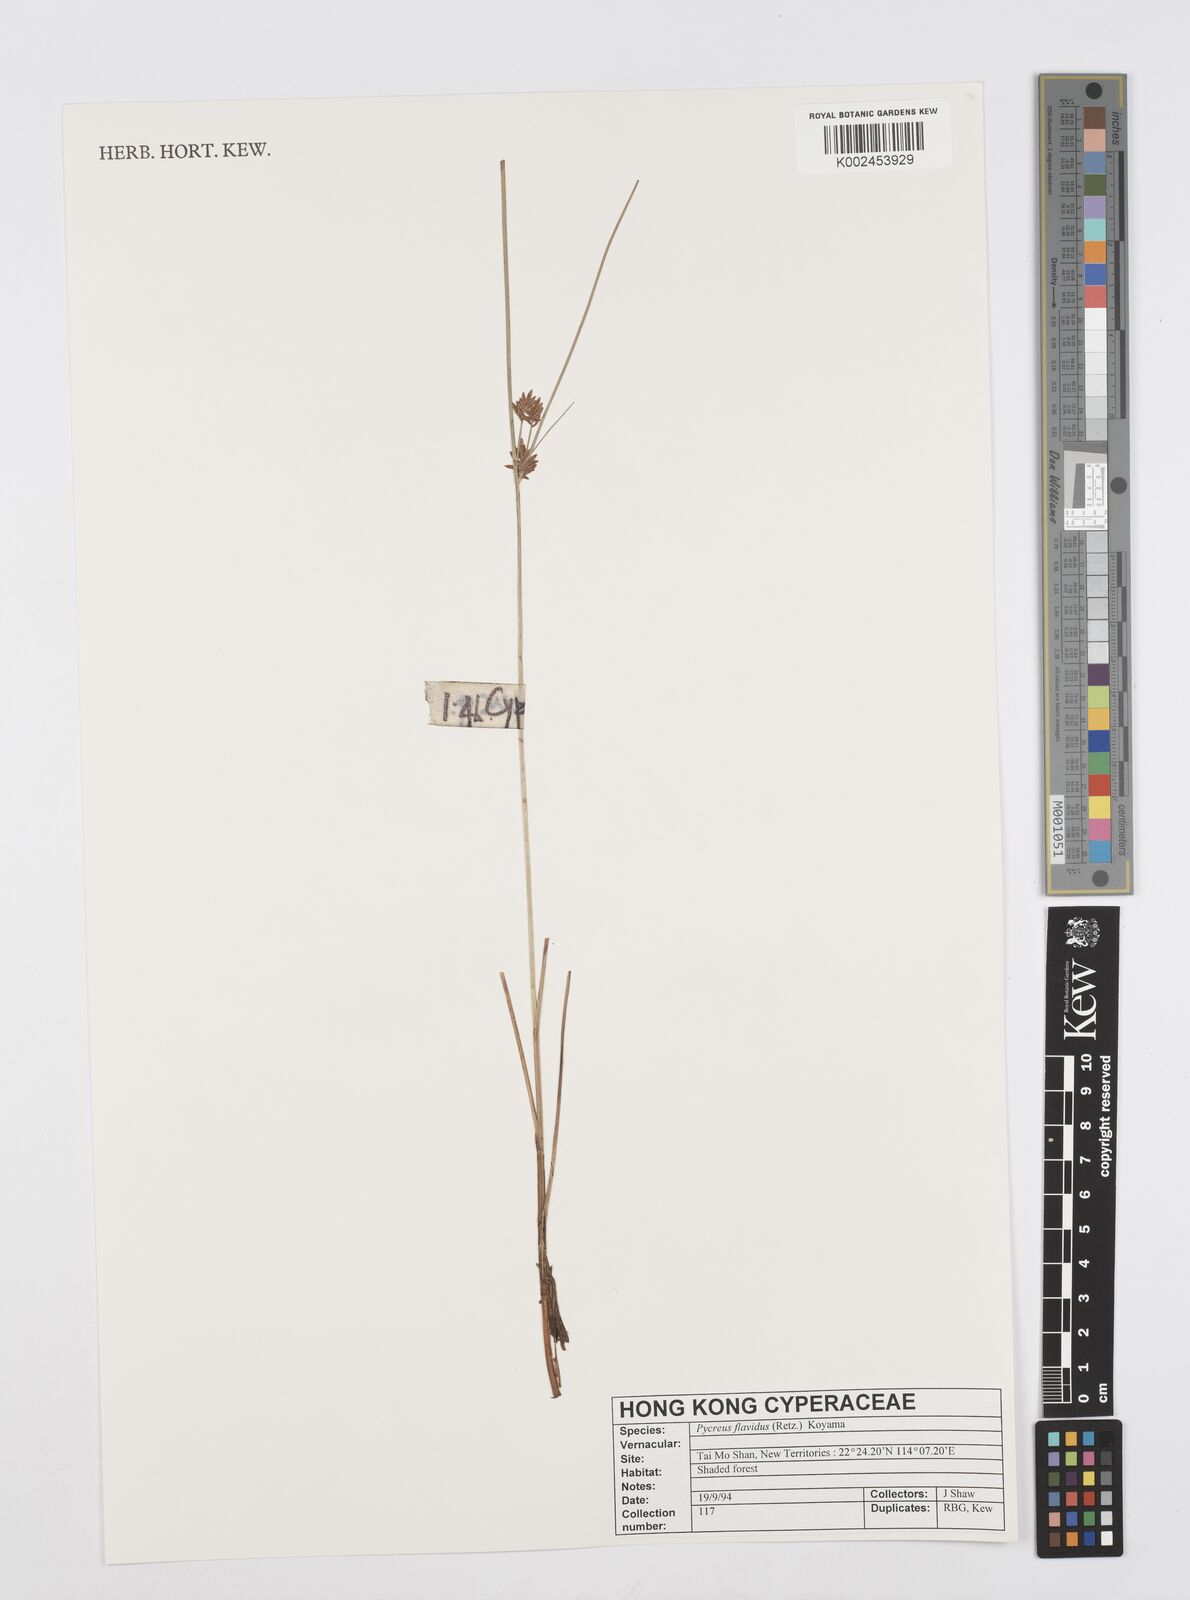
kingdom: Plantae
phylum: Tracheophyta
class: Liliopsida
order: Poales
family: Cyperaceae
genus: Cyperus
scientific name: Cyperus sanguinolentus
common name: Purpleglume flatsedge
